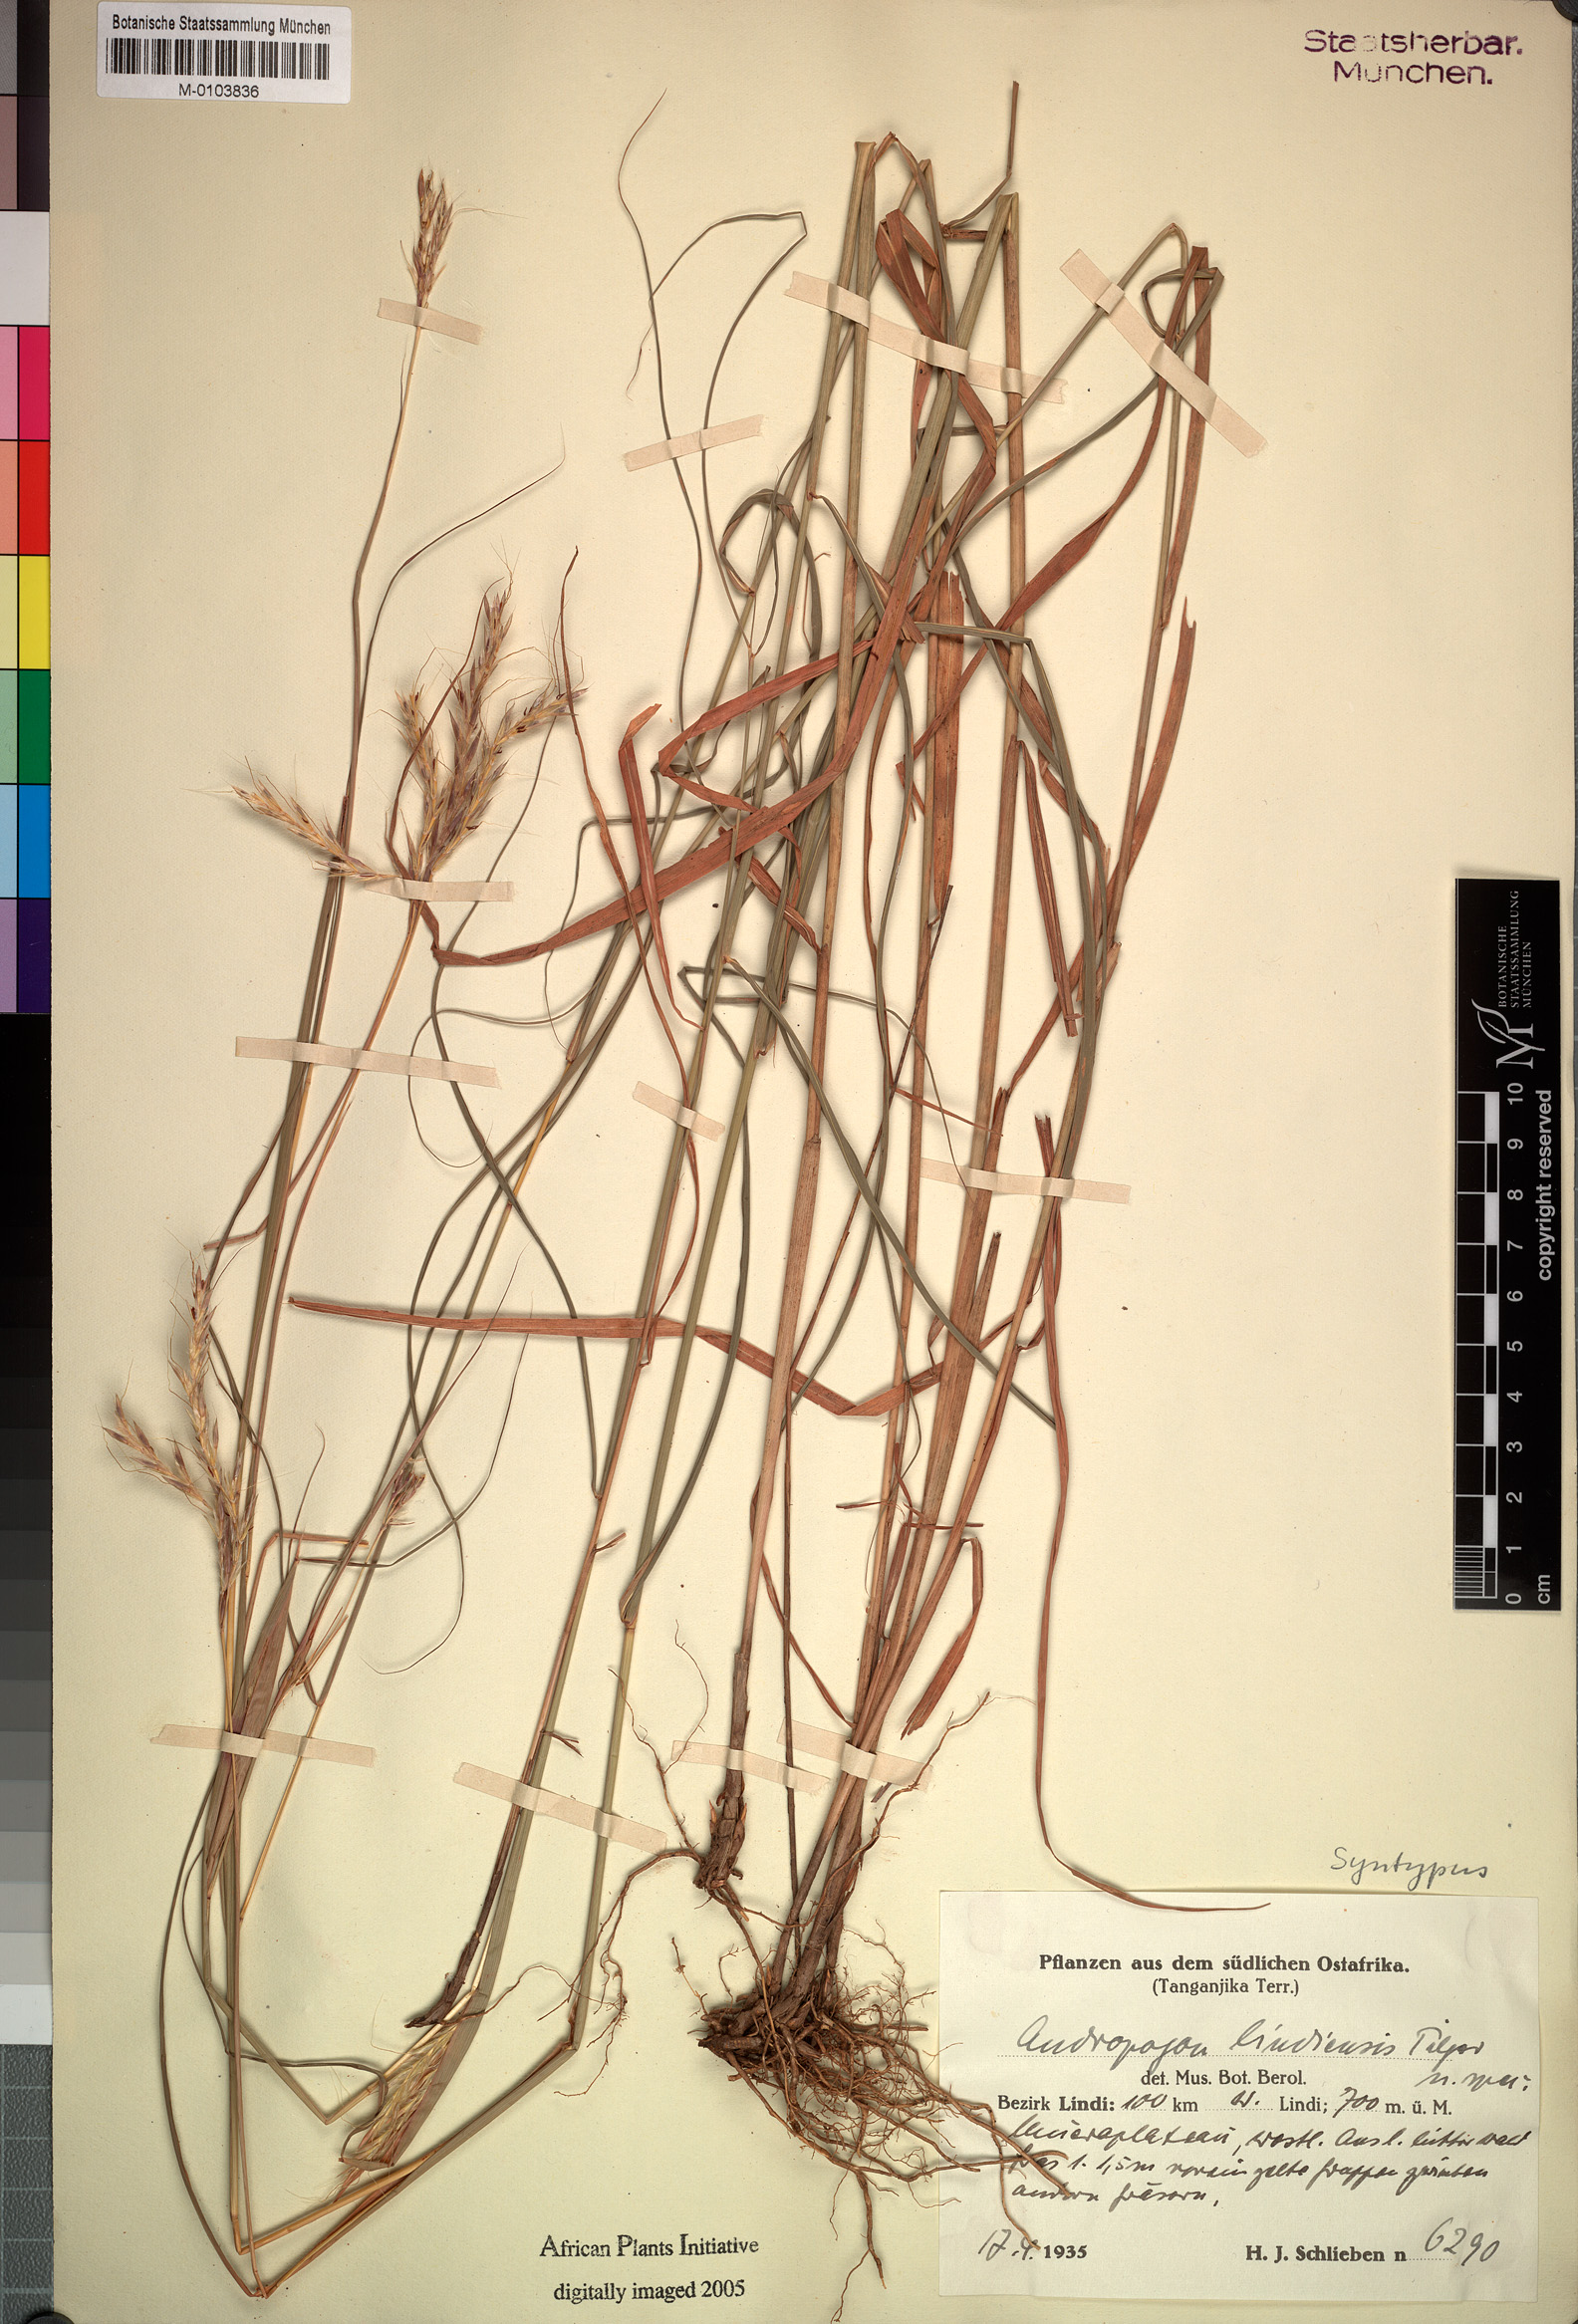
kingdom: Plantae
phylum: Tracheophyta
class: Liliopsida
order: Poales
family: Poaceae
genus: Andropogon
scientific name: Andropogon chinensis
